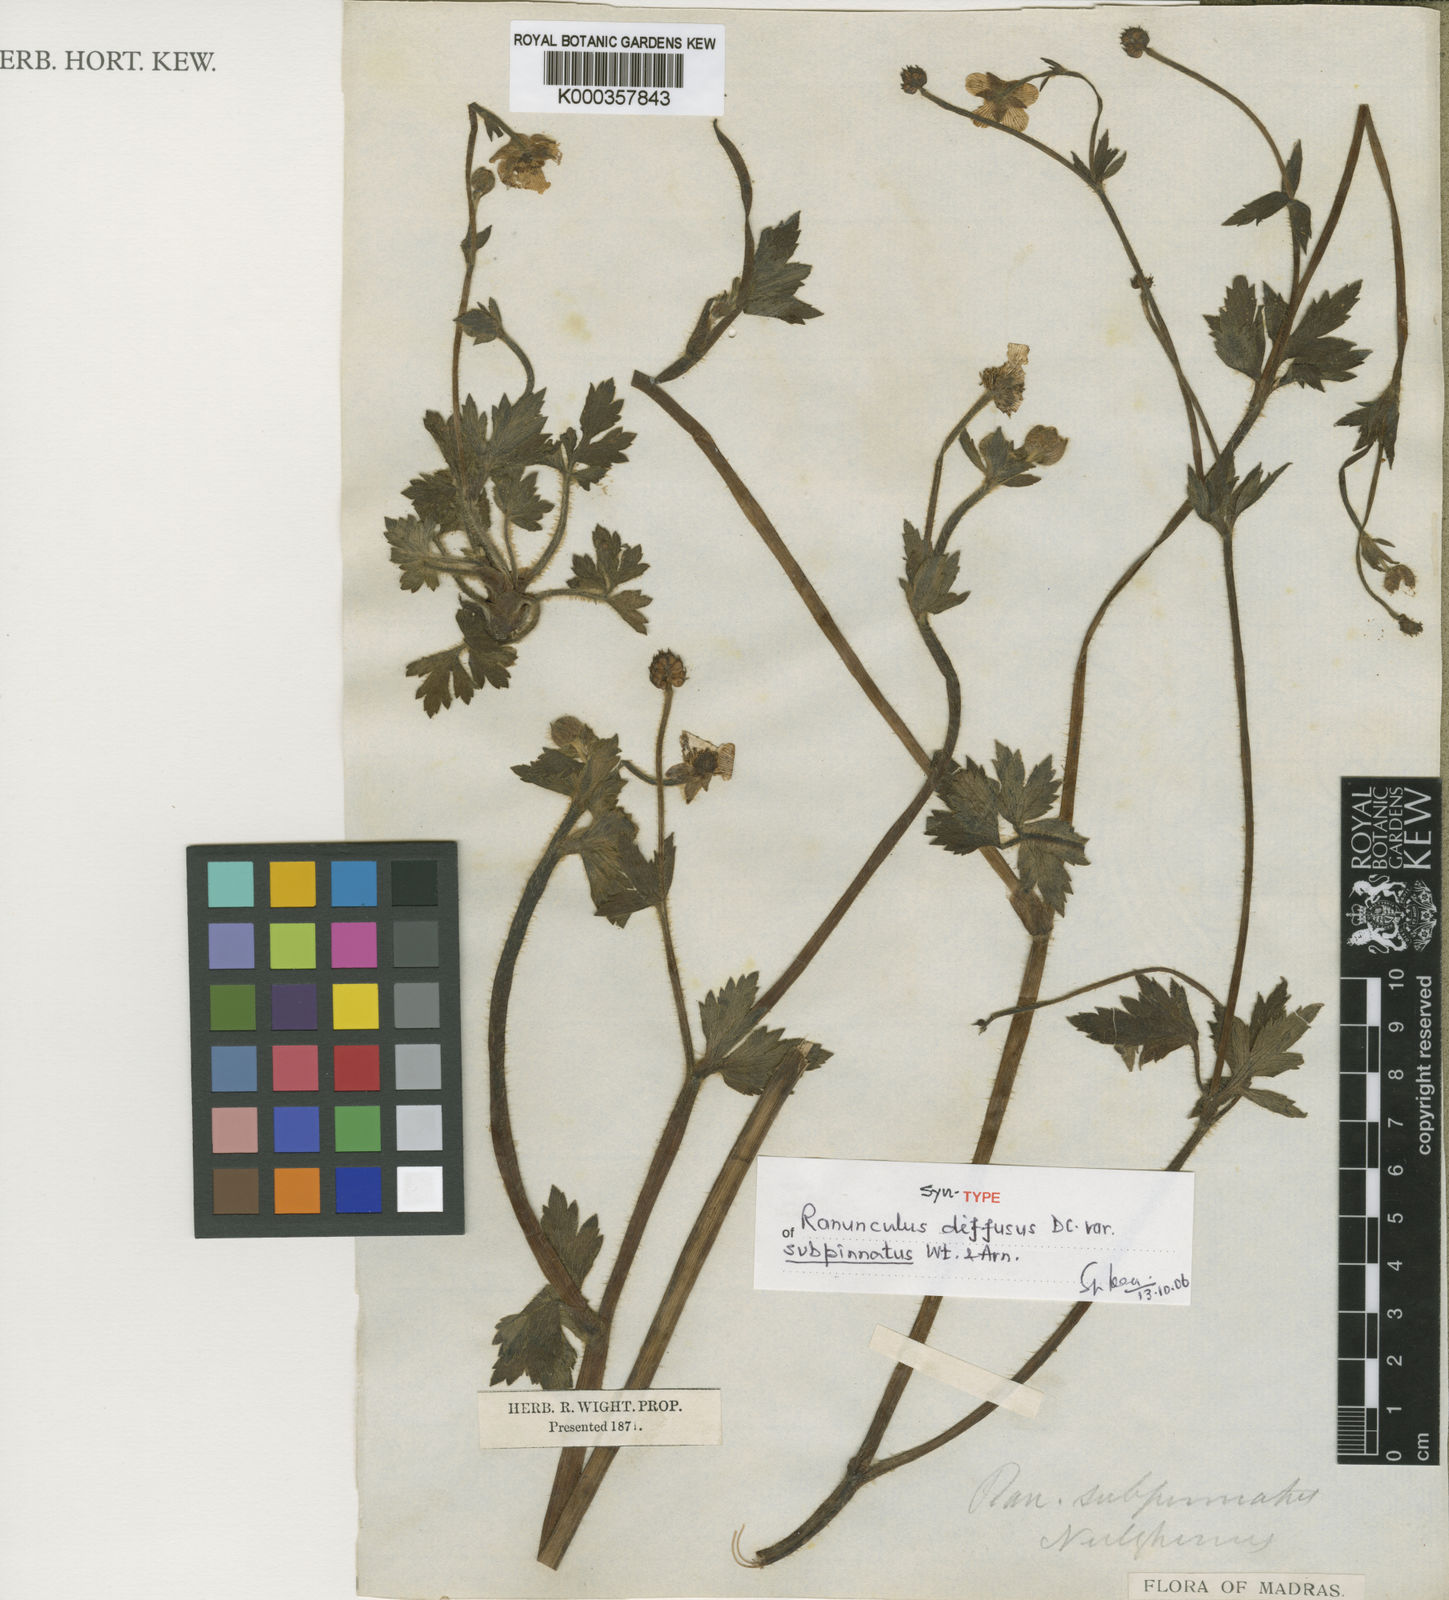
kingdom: Plantae
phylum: Tracheophyta
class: Magnoliopsida
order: Ranunculales
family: Ranunculaceae
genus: Ranunculus
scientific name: Ranunculus diffusus
